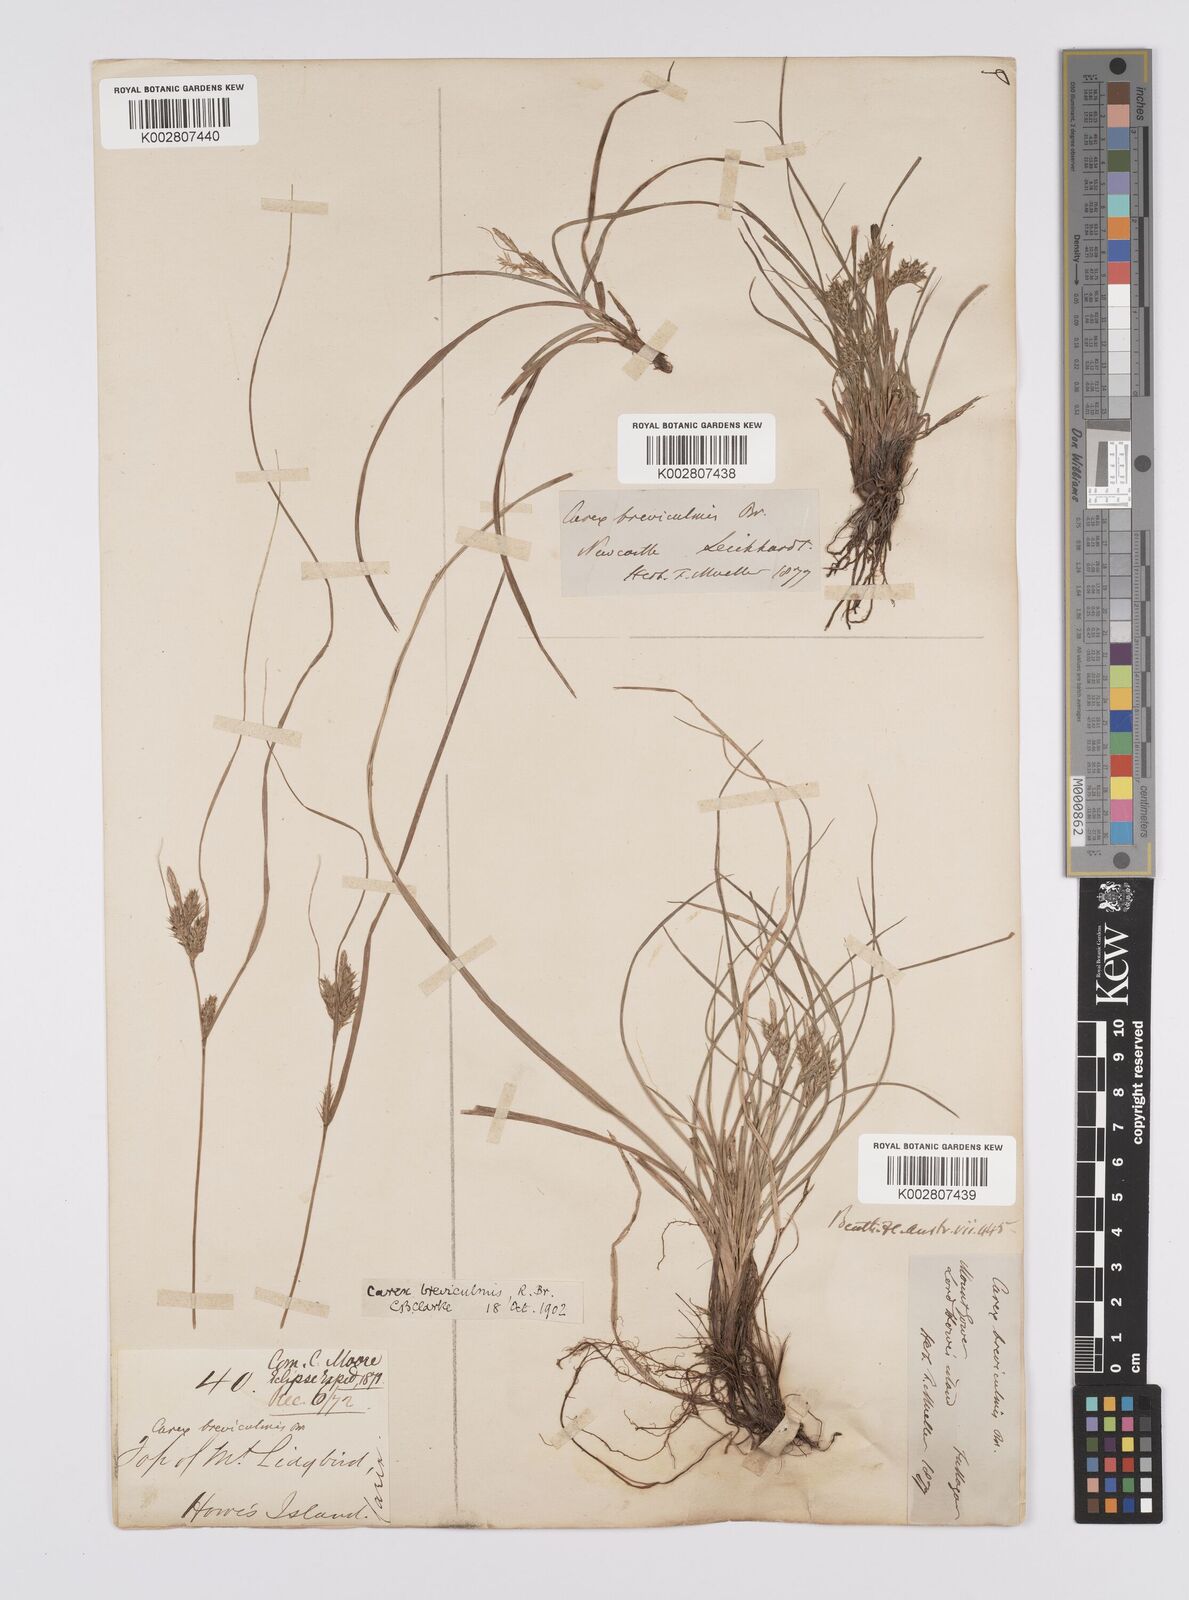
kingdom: Plantae
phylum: Tracheophyta
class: Liliopsida
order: Poales
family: Cyperaceae
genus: Carex
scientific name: Carex breviculmis
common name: Asian shortstem sedge
